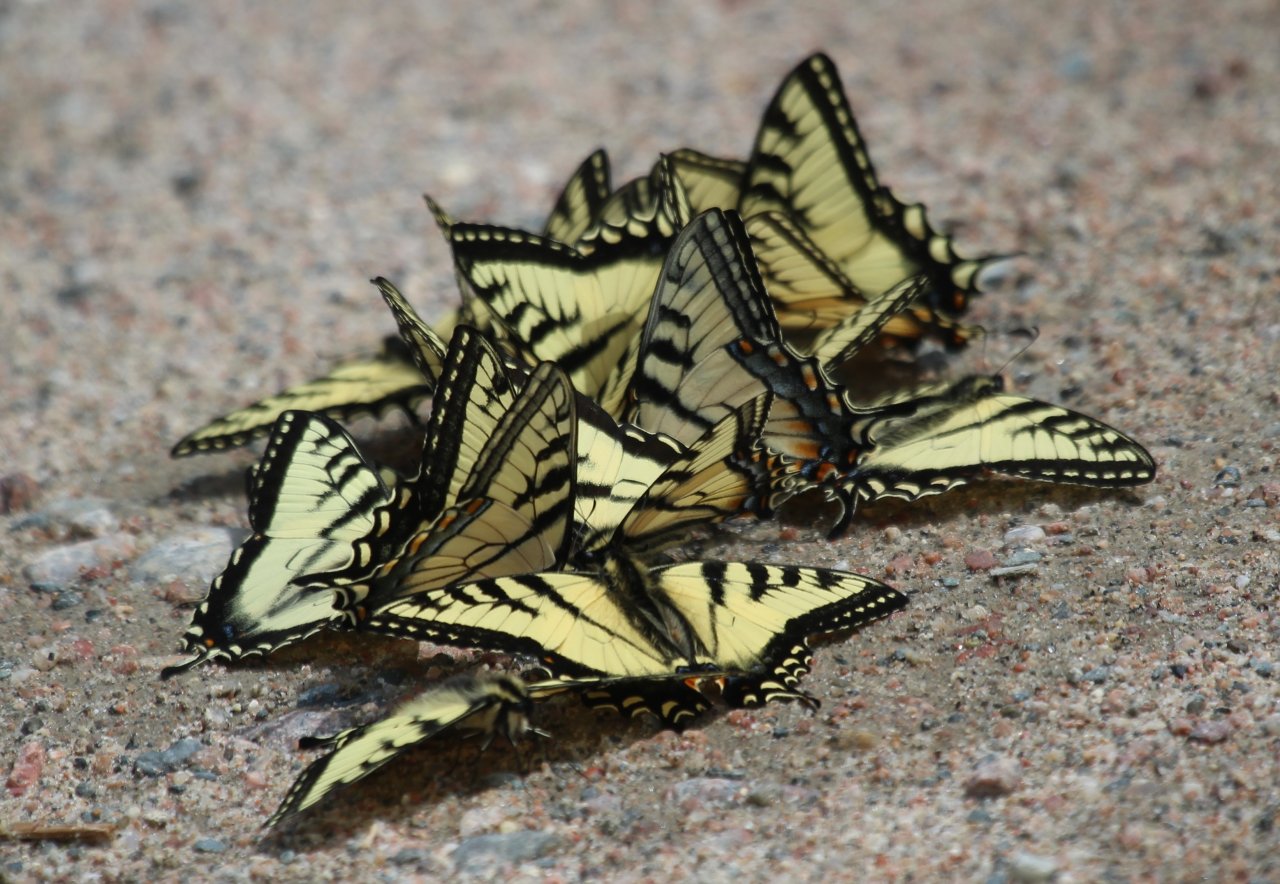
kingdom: Animalia
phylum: Arthropoda
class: Insecta
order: Lepidoptera
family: Papilionidae
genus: Pterourus
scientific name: Pterourus canadensis
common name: Canadian Tiger Swallowtail
